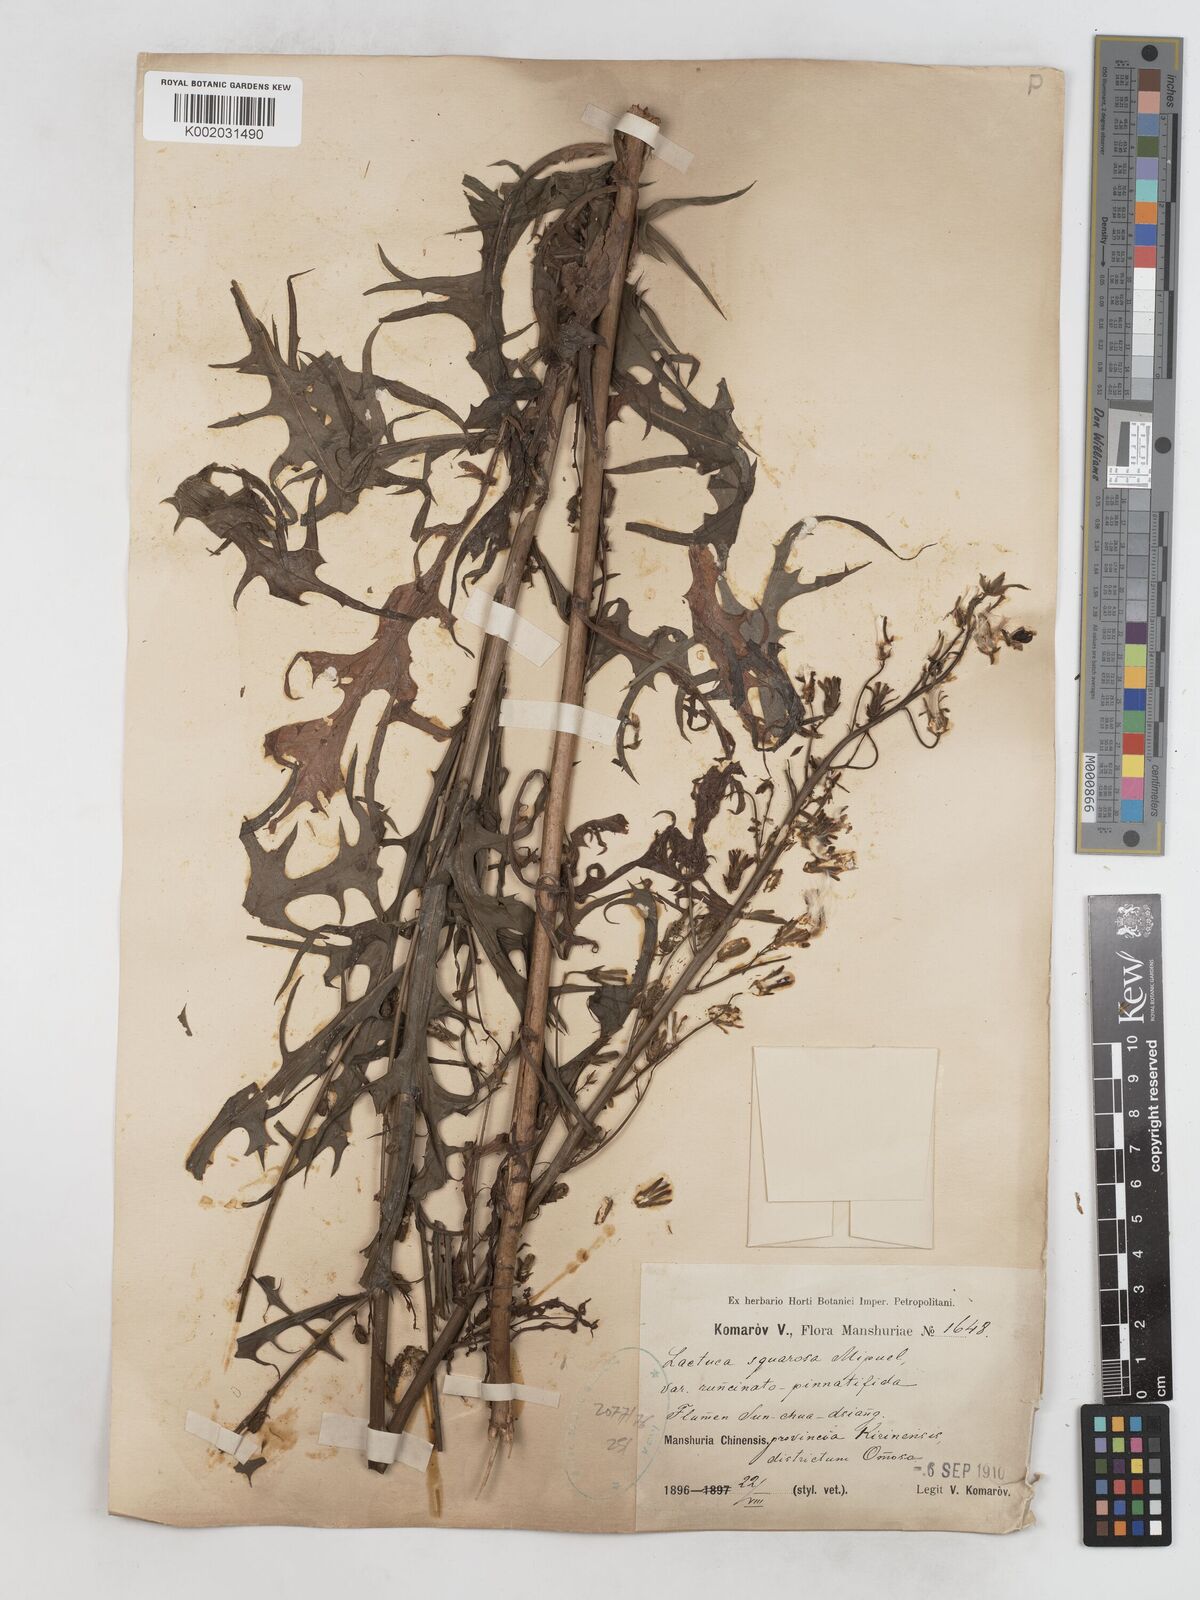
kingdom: Plantae
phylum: Tracheophyta
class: Magnoliopsida
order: Asterales
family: Asteraceae
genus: Lactuca
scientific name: Lactuca indica
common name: Wild lettuce
